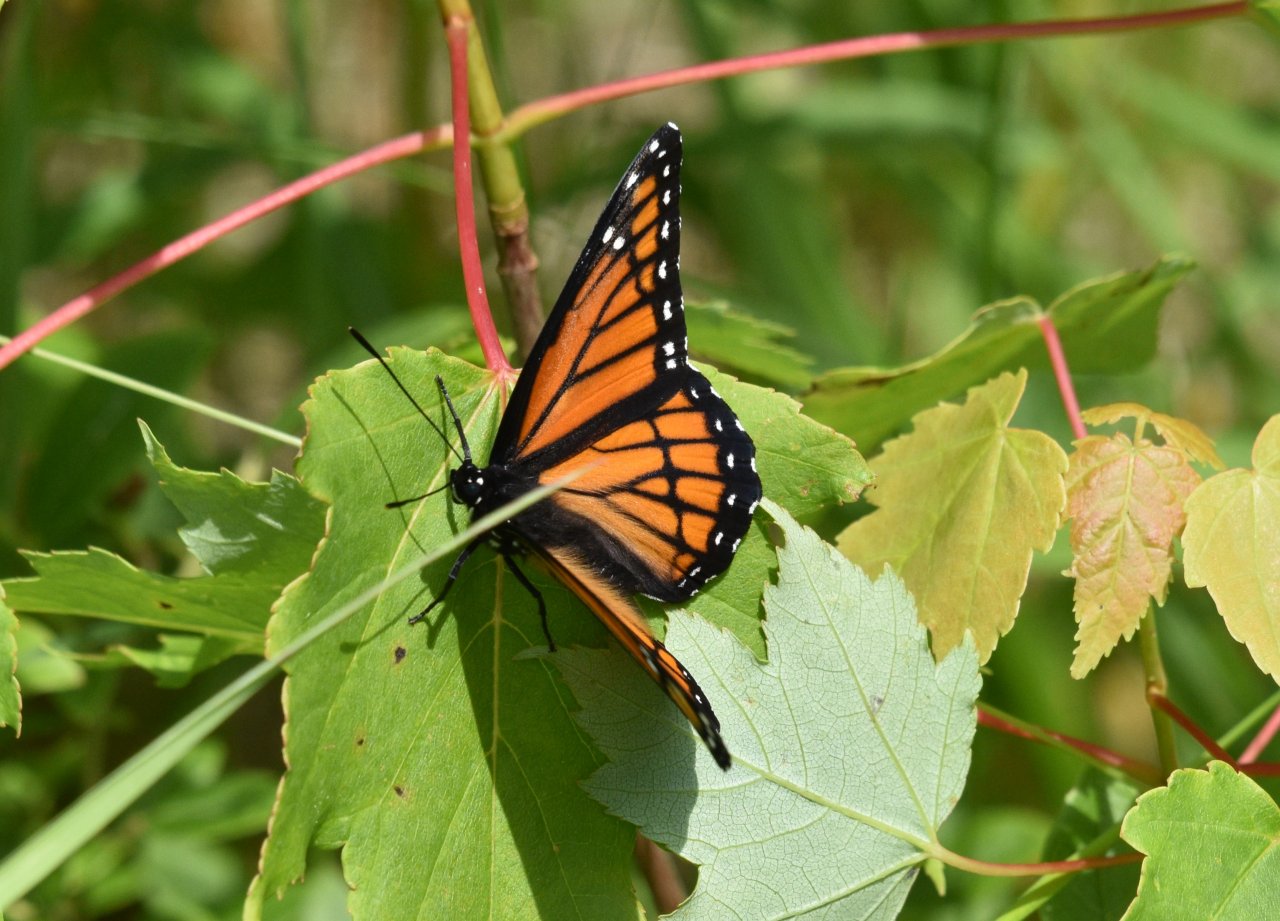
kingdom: Animalia
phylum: Arthropoda
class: Insecta
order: Lepidoptera
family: Nymphalidae
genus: Limenitis
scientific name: Limenitis archippus
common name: Viceroy
